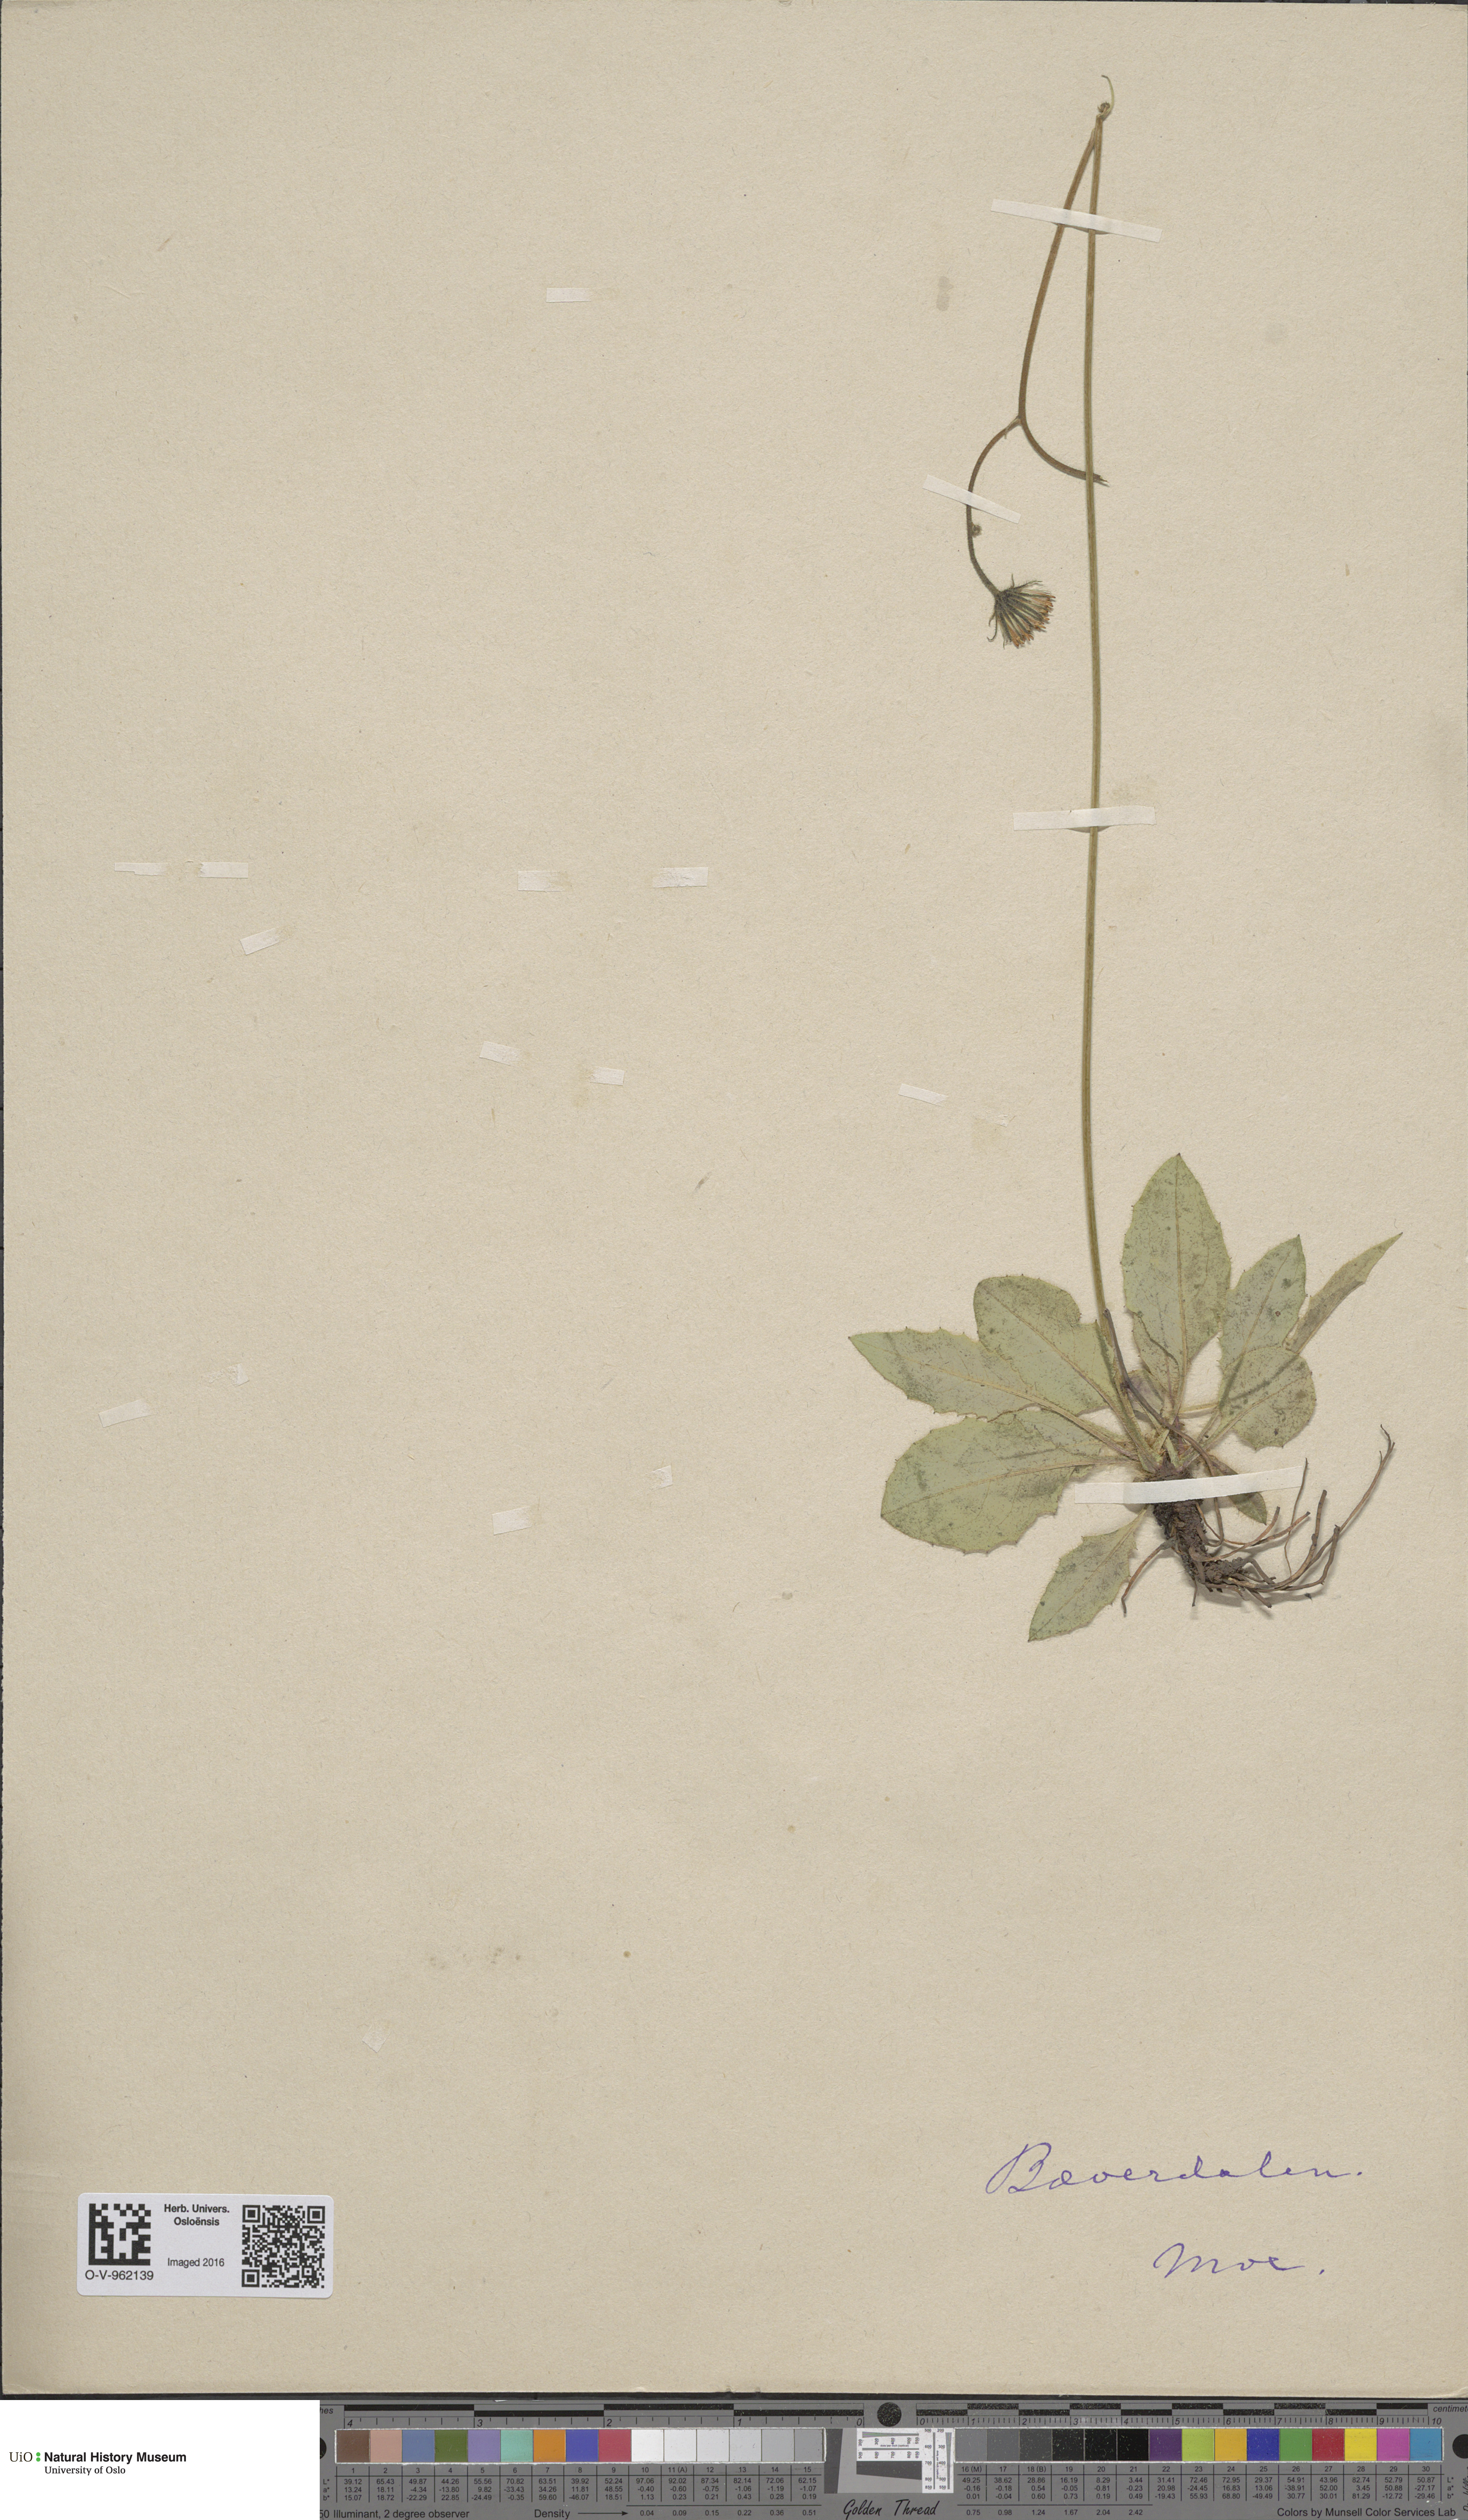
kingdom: Plantae
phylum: Tracheophyta
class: Magnoliopsida
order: Asterales
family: Asteraceae
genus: Hieracium
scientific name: Hieracium
